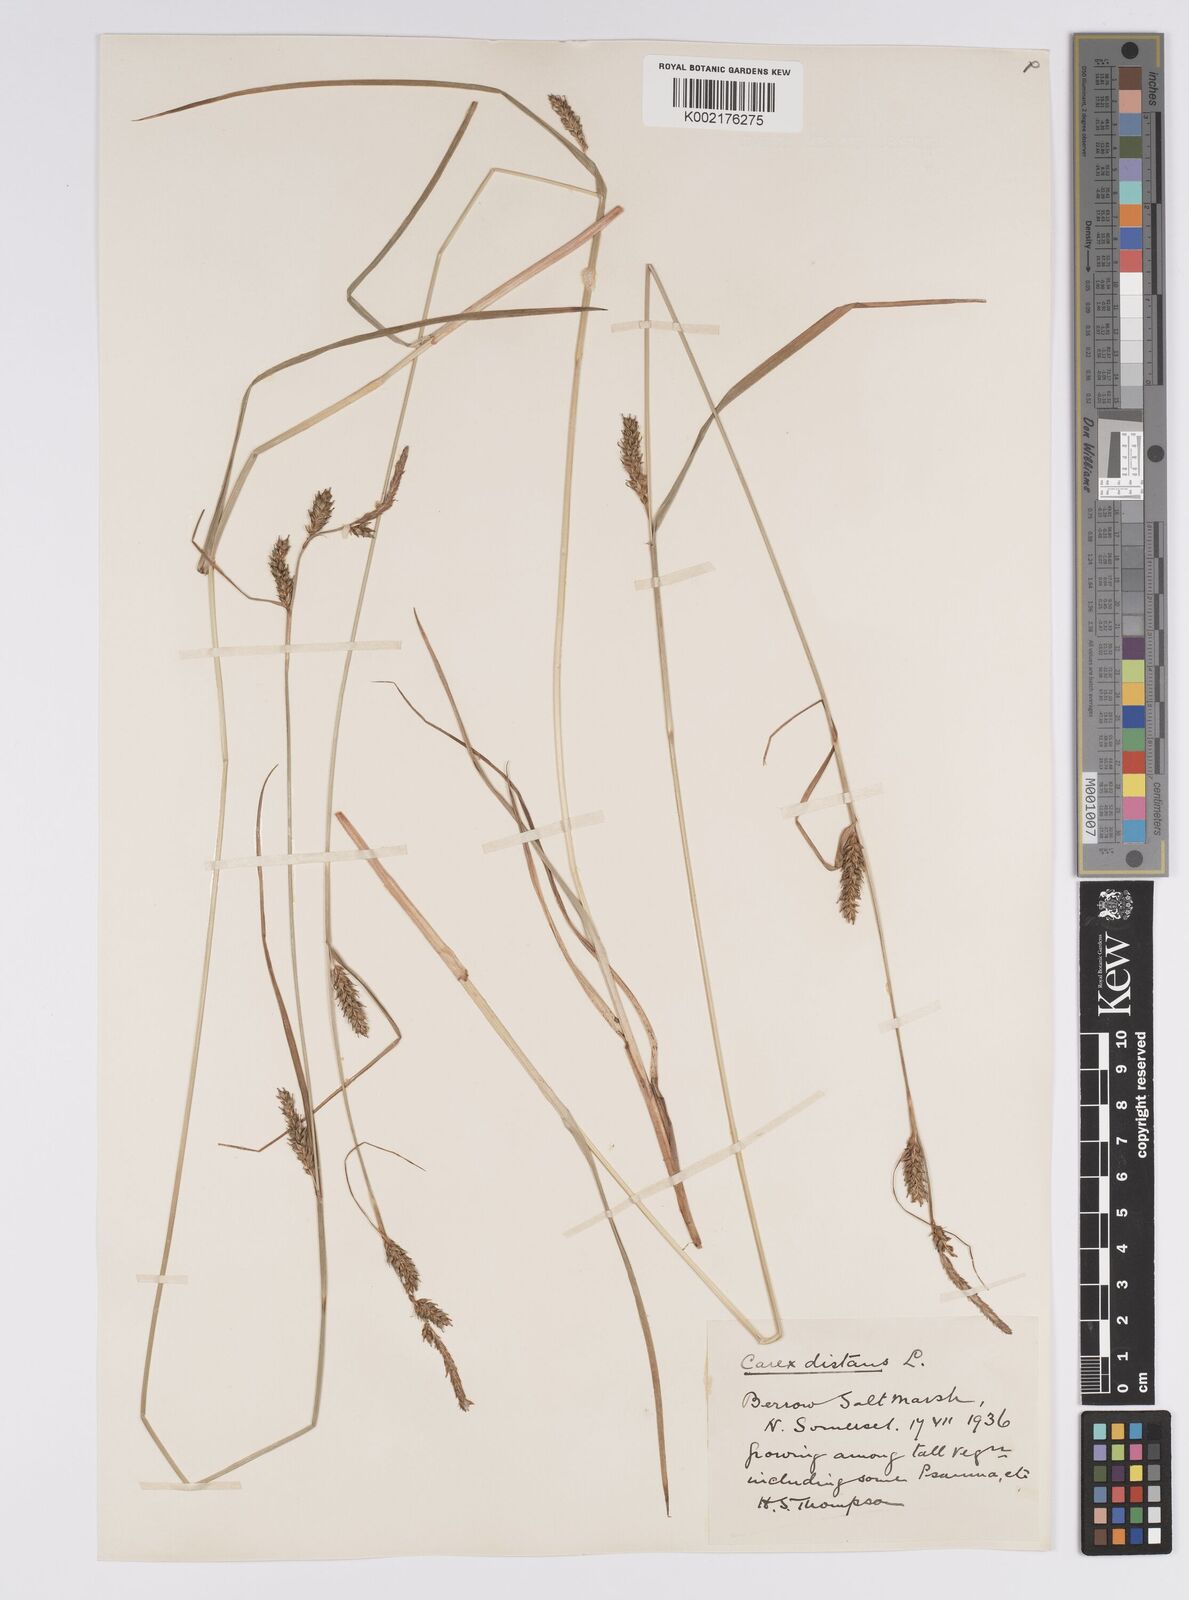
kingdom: Plantae
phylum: Tracheophyta
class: Liliopsida
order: Poales
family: Cyperaceae
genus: Carex
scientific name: Carex distans
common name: Distant sedge
